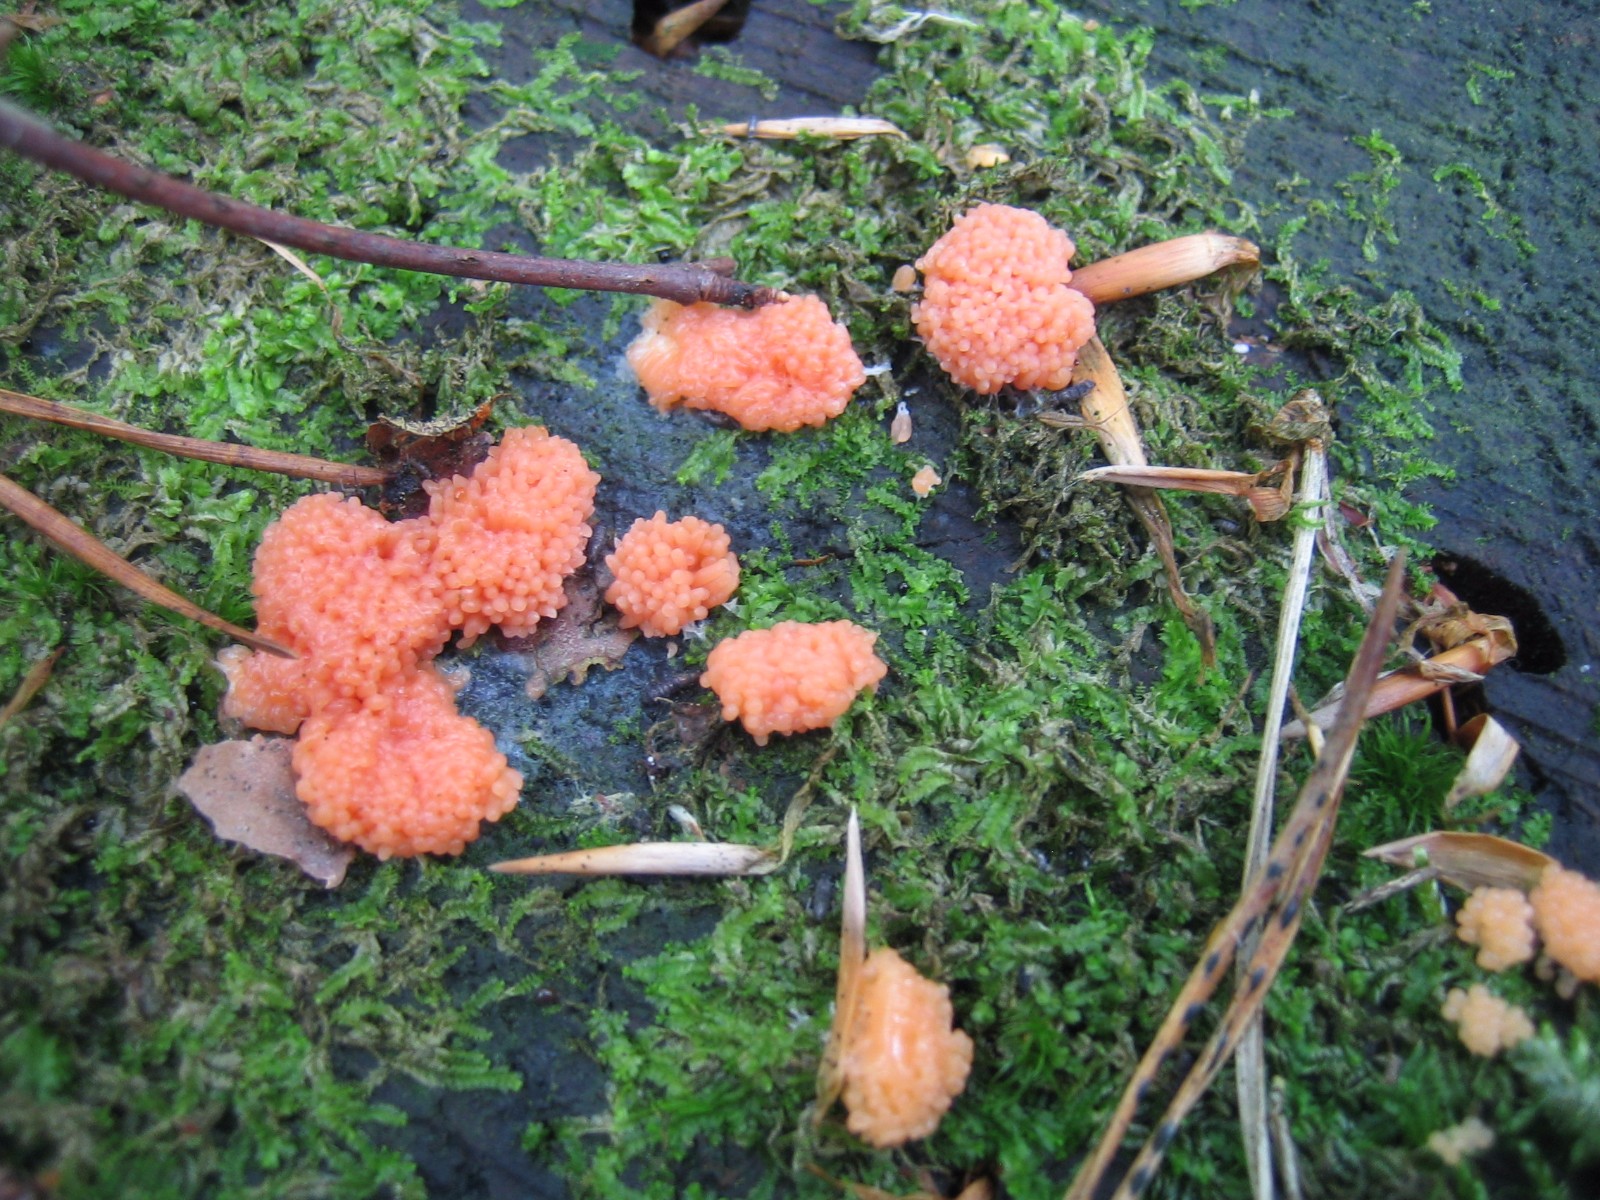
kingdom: Protozoa
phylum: Mycetozoa
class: Myxomycetes
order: Cribrariales
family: Tubiferaceae
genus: Tubifera
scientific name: Tubifera ferruginosa
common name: kanel-støvrør
